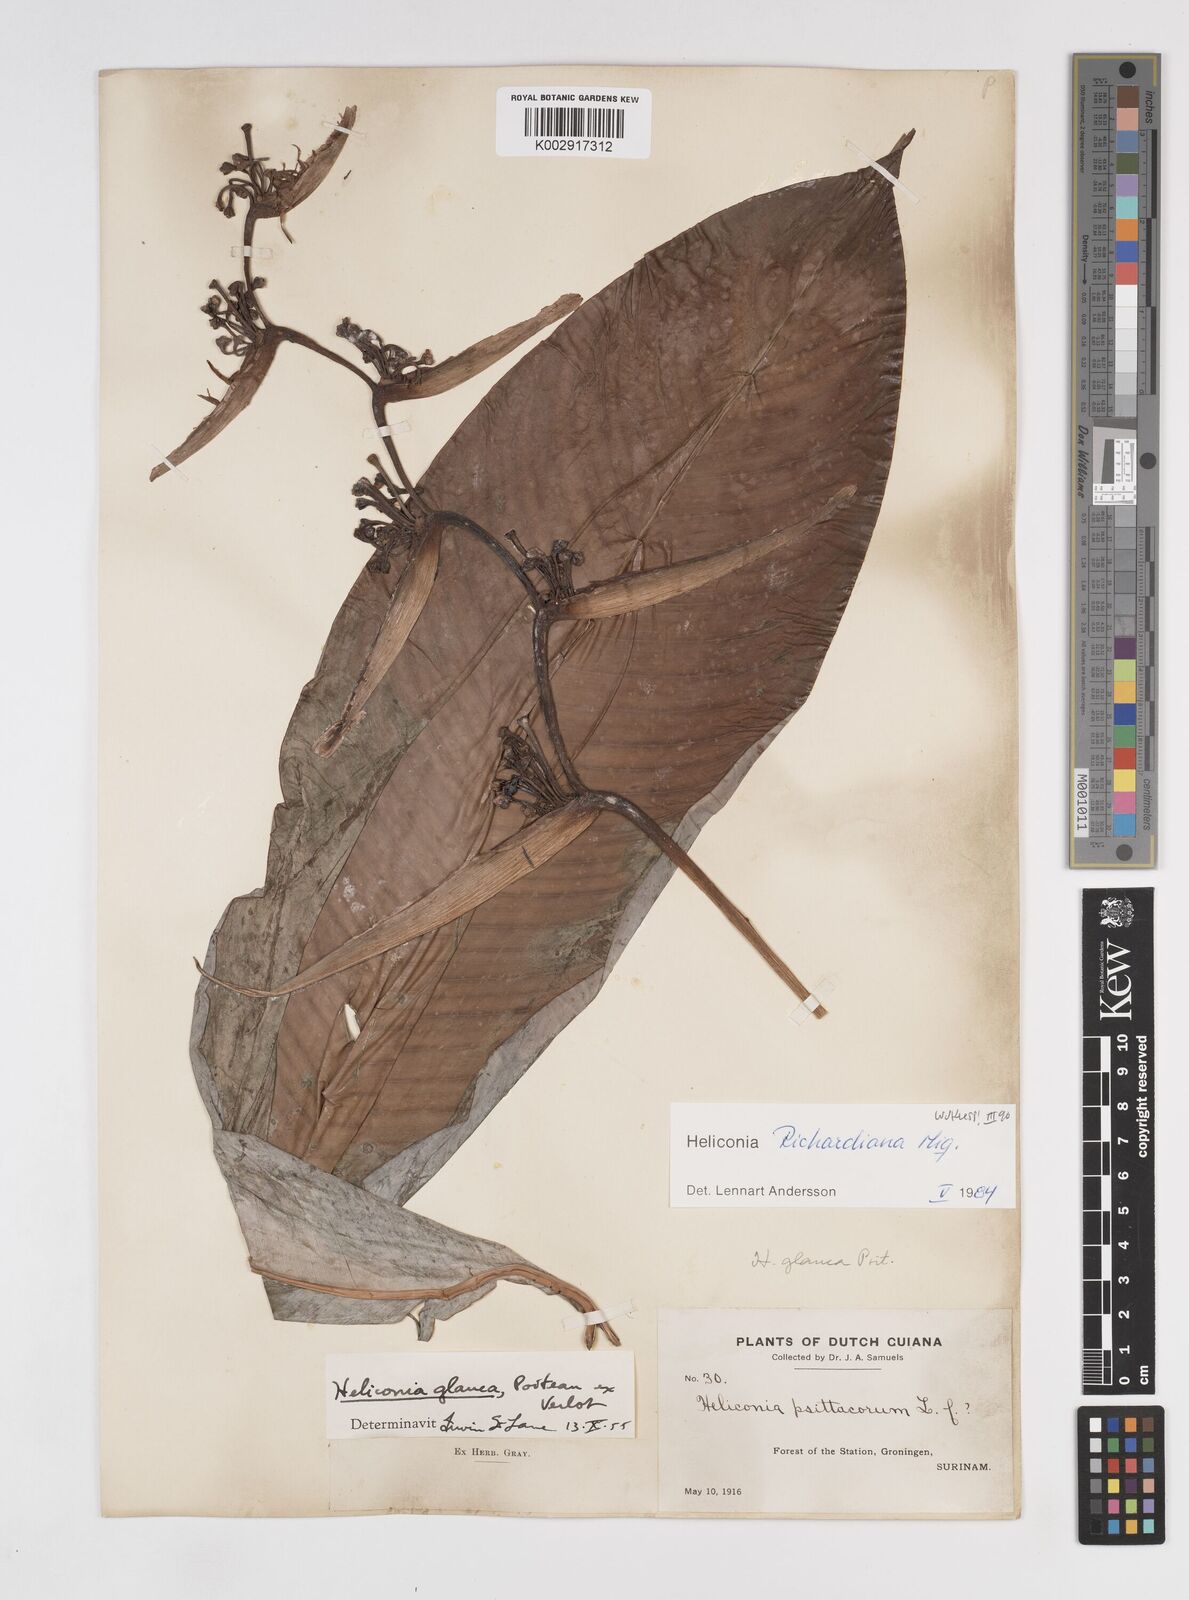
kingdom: Plantae
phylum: Tracheophyta
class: Liliopsida
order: Zingiberales
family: Heliconiaceae
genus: Heliconia
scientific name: Heliconia richardiana
